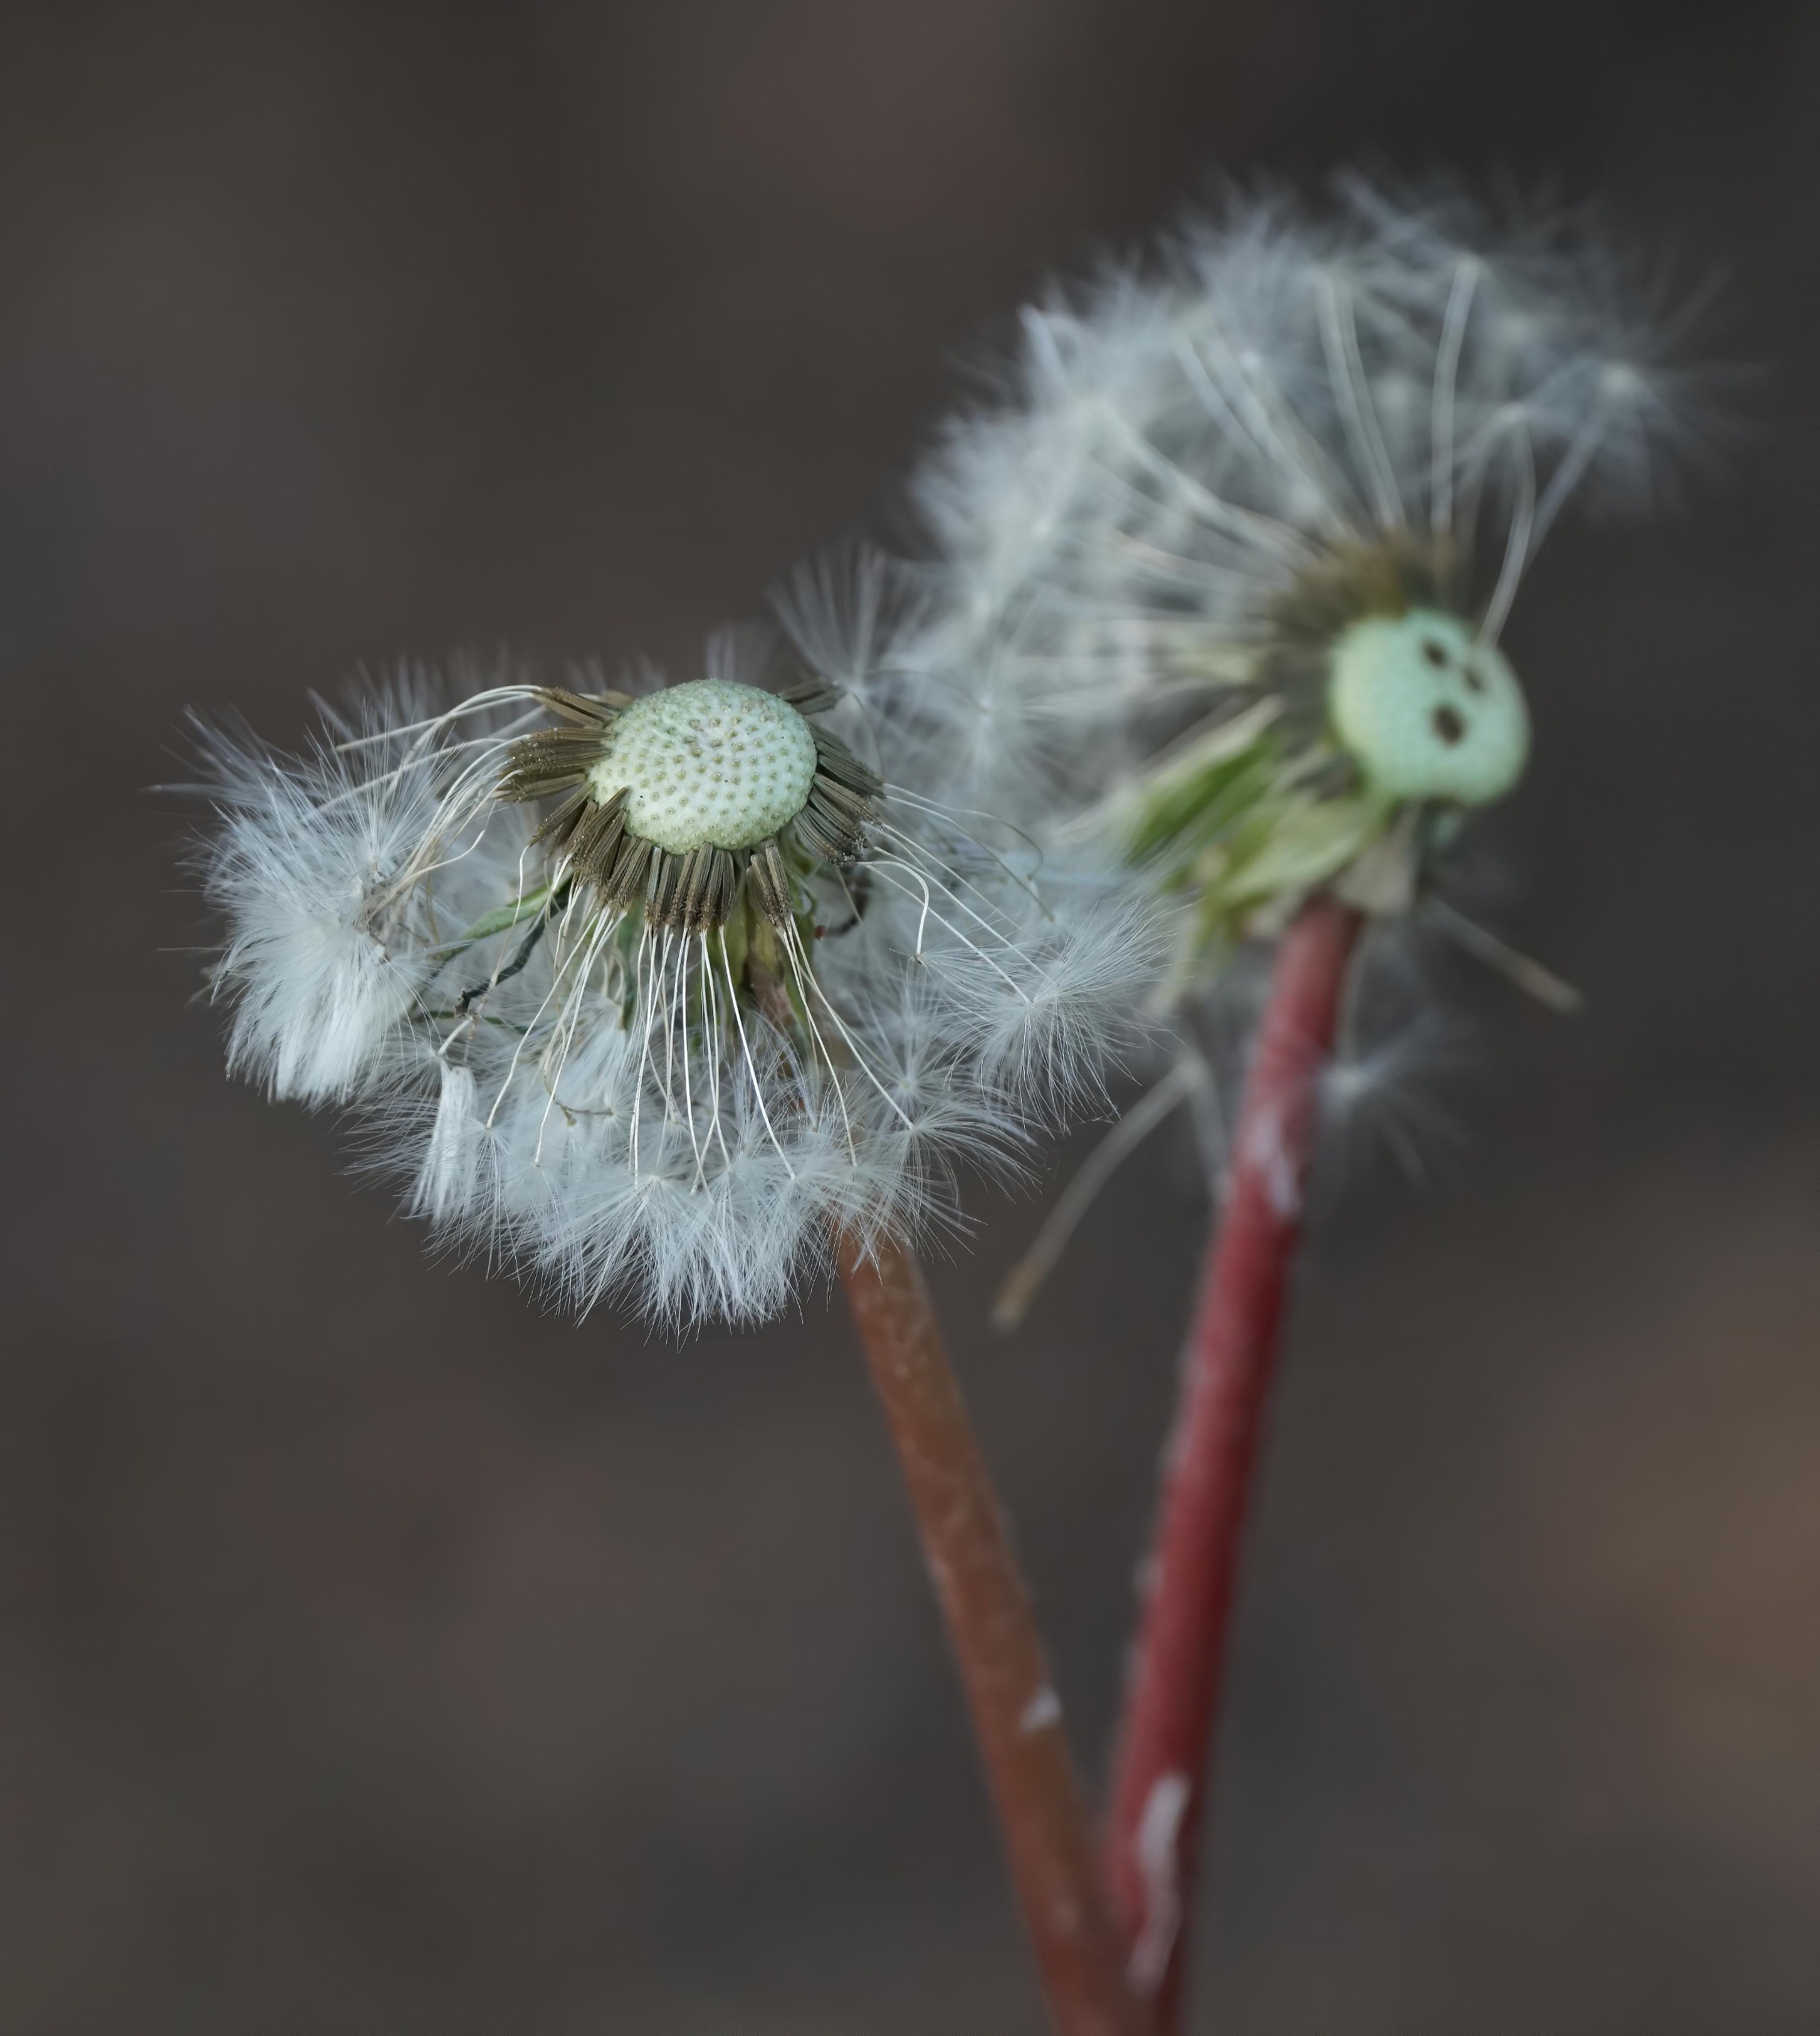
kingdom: Plantae
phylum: Tracheophyta
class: Magnoliopsida
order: Asterales
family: Asteraceae
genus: Taraxacum
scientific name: Taraxacum
